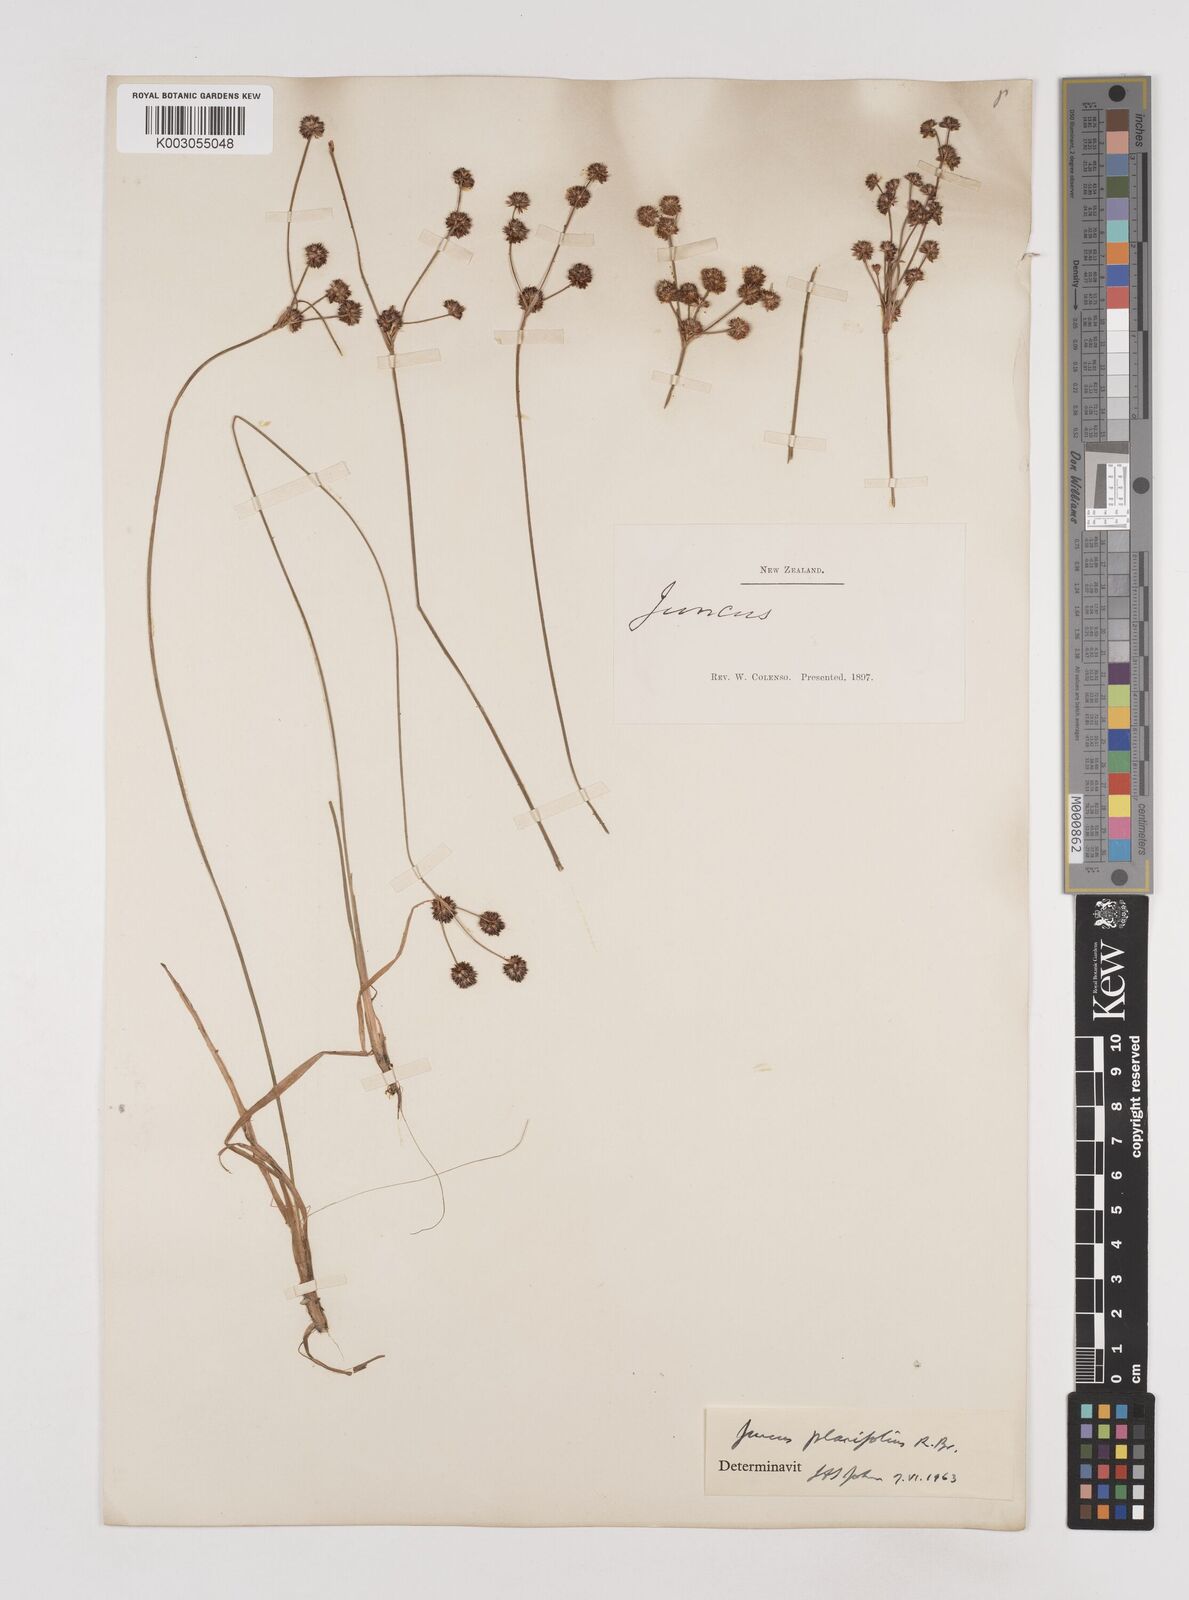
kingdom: Plantae
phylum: Tracheophyta
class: Liliopsida
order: Poales
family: Juncaceae
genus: Juncus
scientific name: Juncus planifolius
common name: Broadleaf rush
